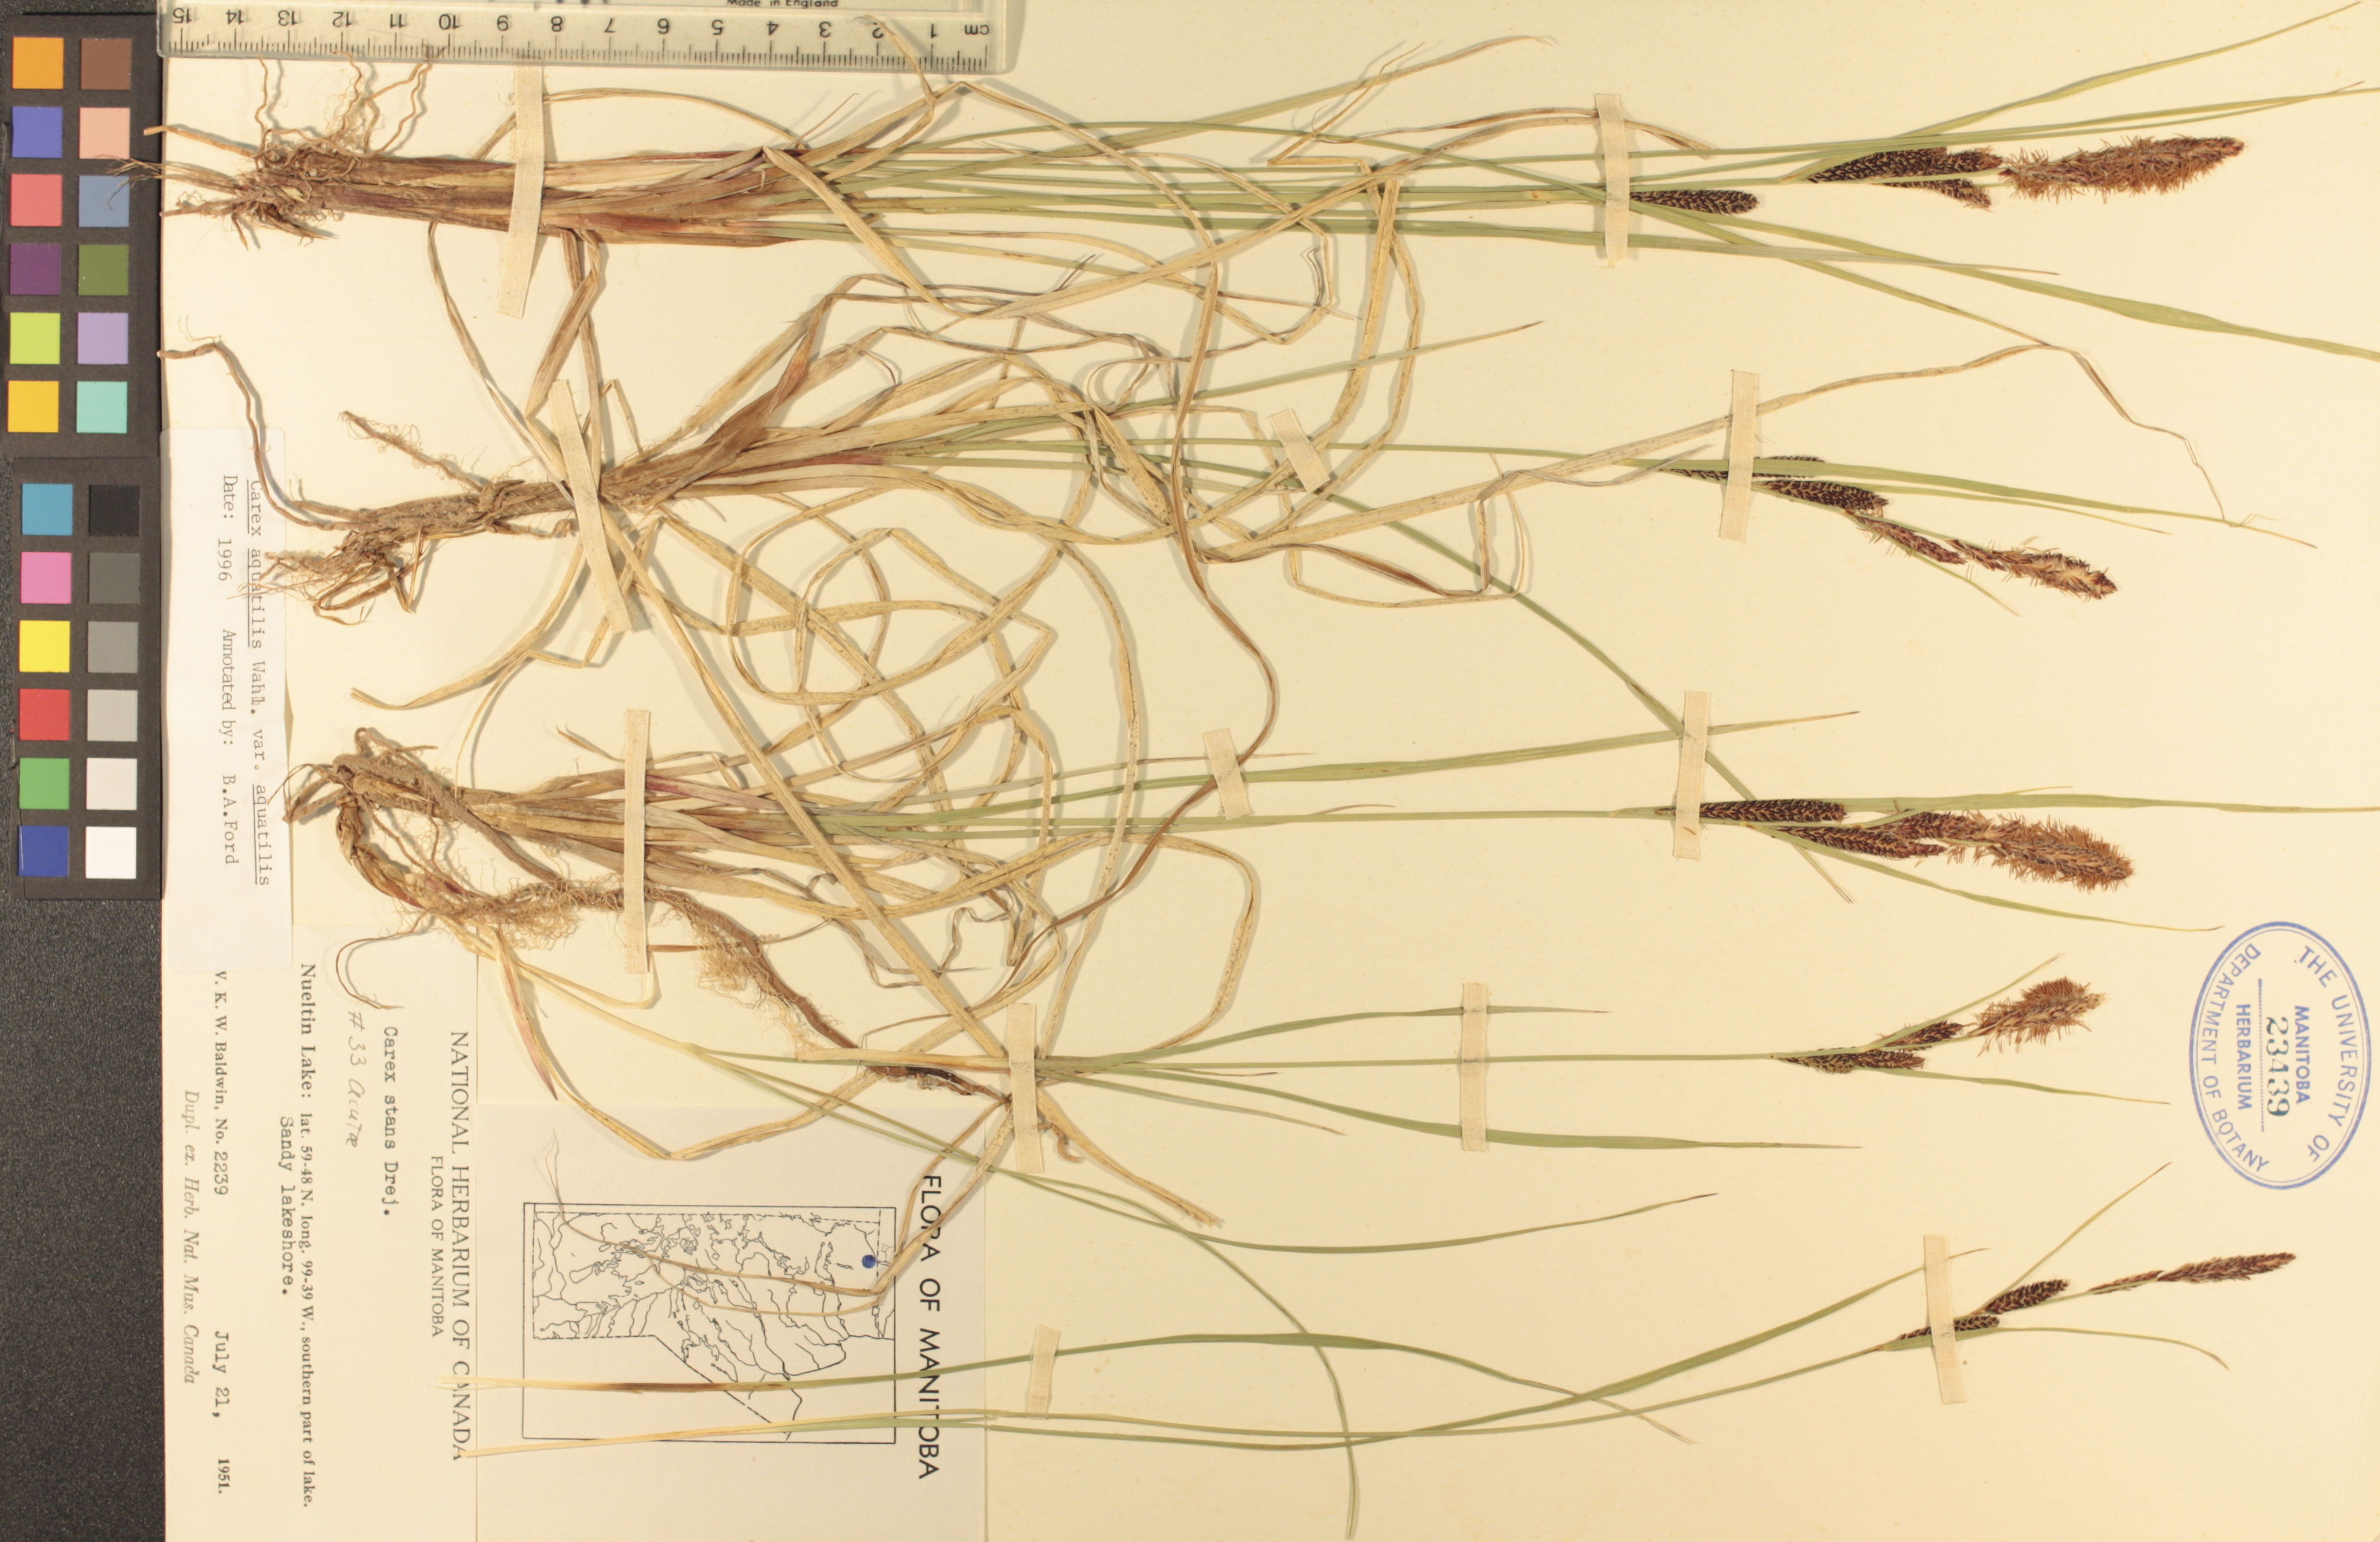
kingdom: Plantae
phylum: Tracheophyta
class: Liliopsida
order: Poales
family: Cyperaceae
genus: Carex
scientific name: Carex aquatilis
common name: Water sedge
